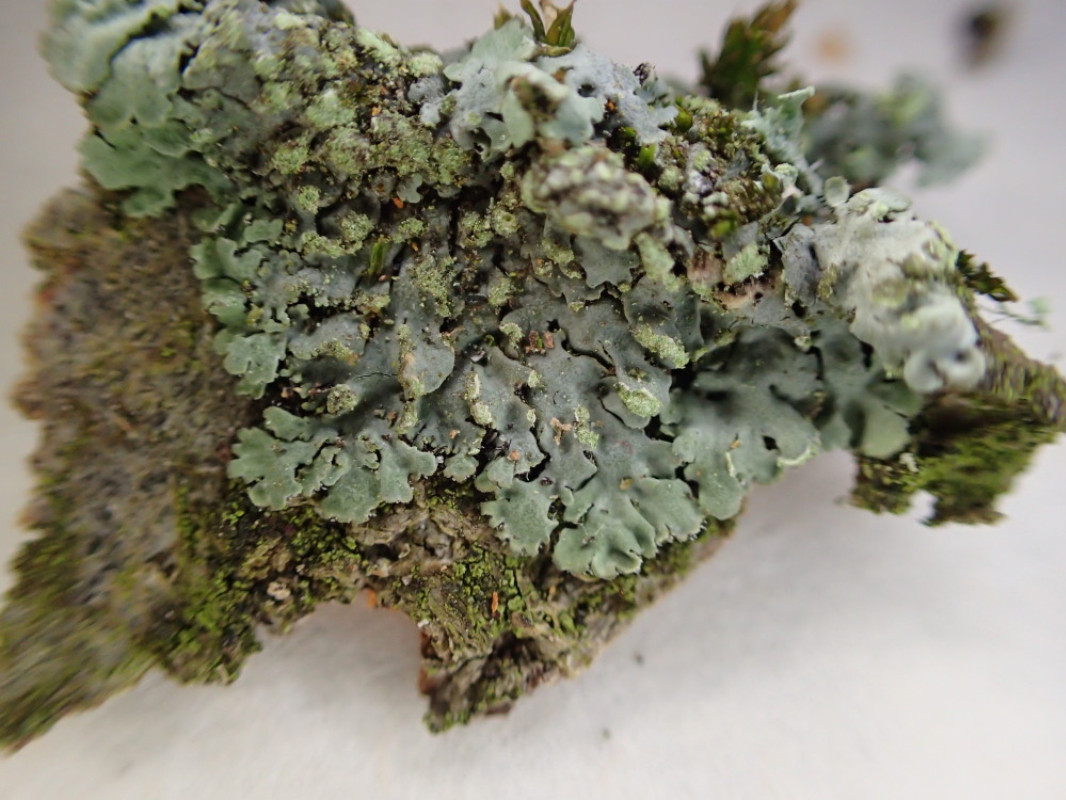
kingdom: Fungi
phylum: Ascomycota
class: Lecanoromycetes
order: Caliciales
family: Physciaceae
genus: Phaeophyscia
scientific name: Phaeophyscia orbicularis
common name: grågrøn rosetlav
